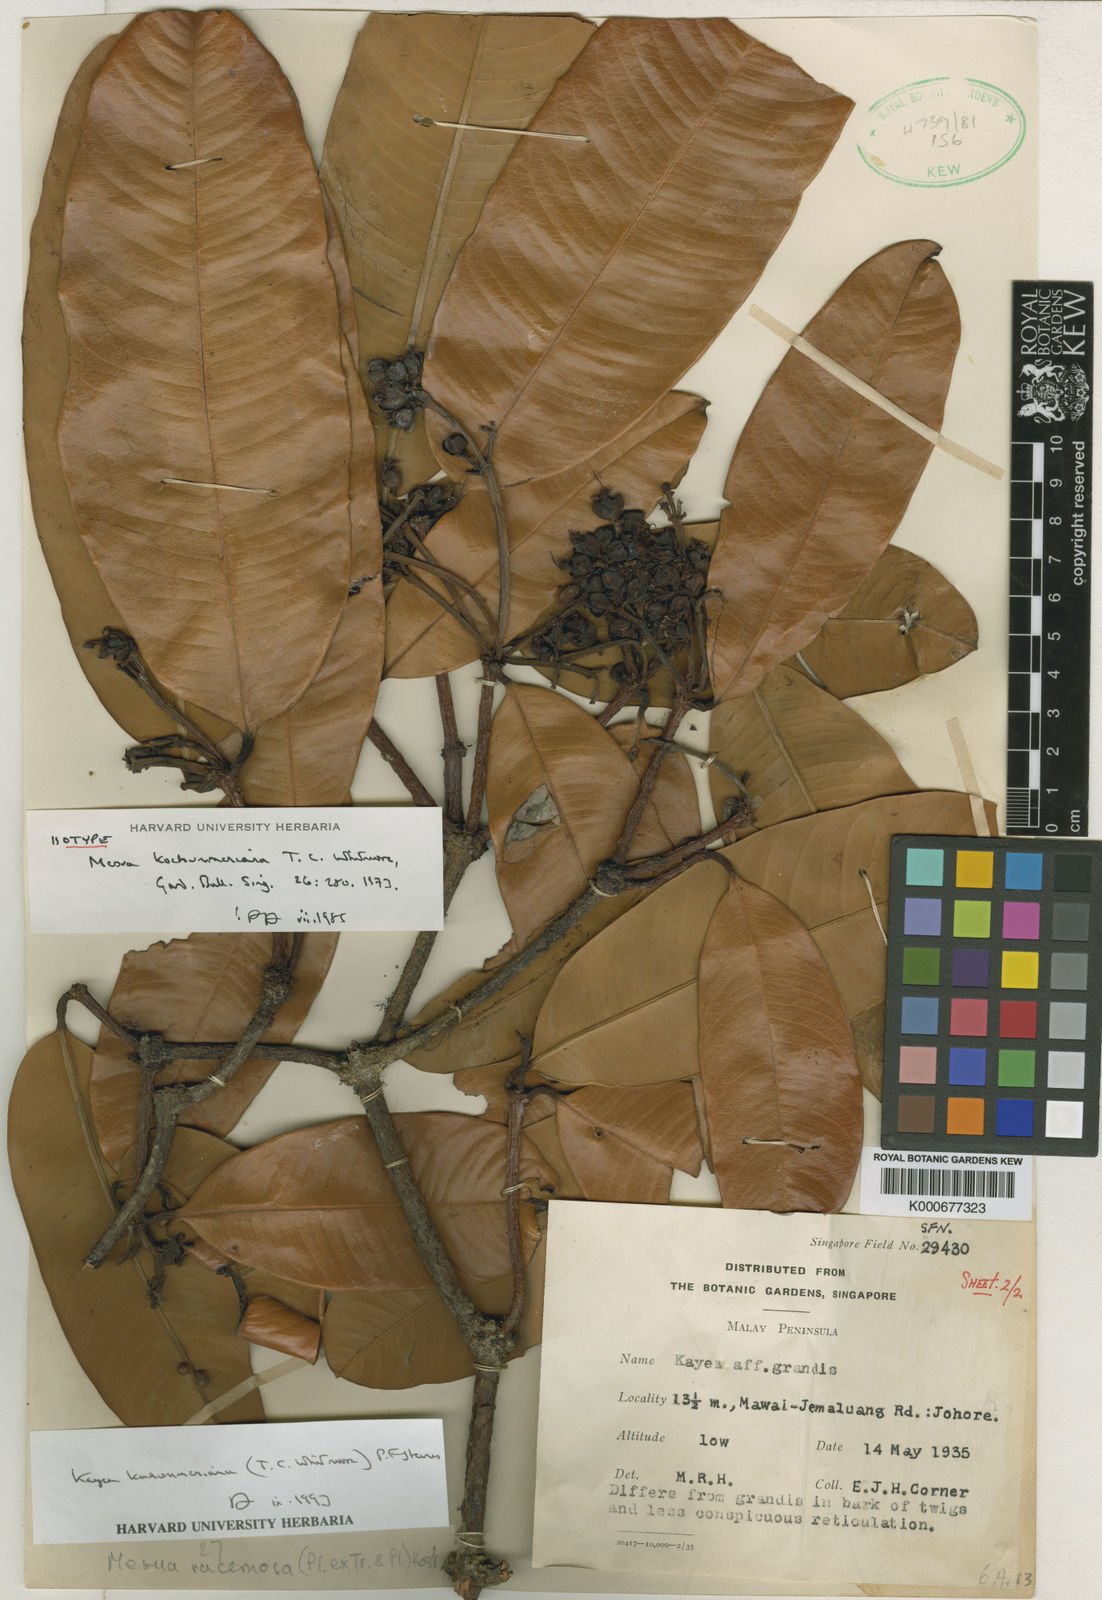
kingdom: Plantae
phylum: Tracheophyta
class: Magnoliopsida
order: Malpighiales
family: Calophyllaceae
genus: Kayea
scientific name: Kayea
